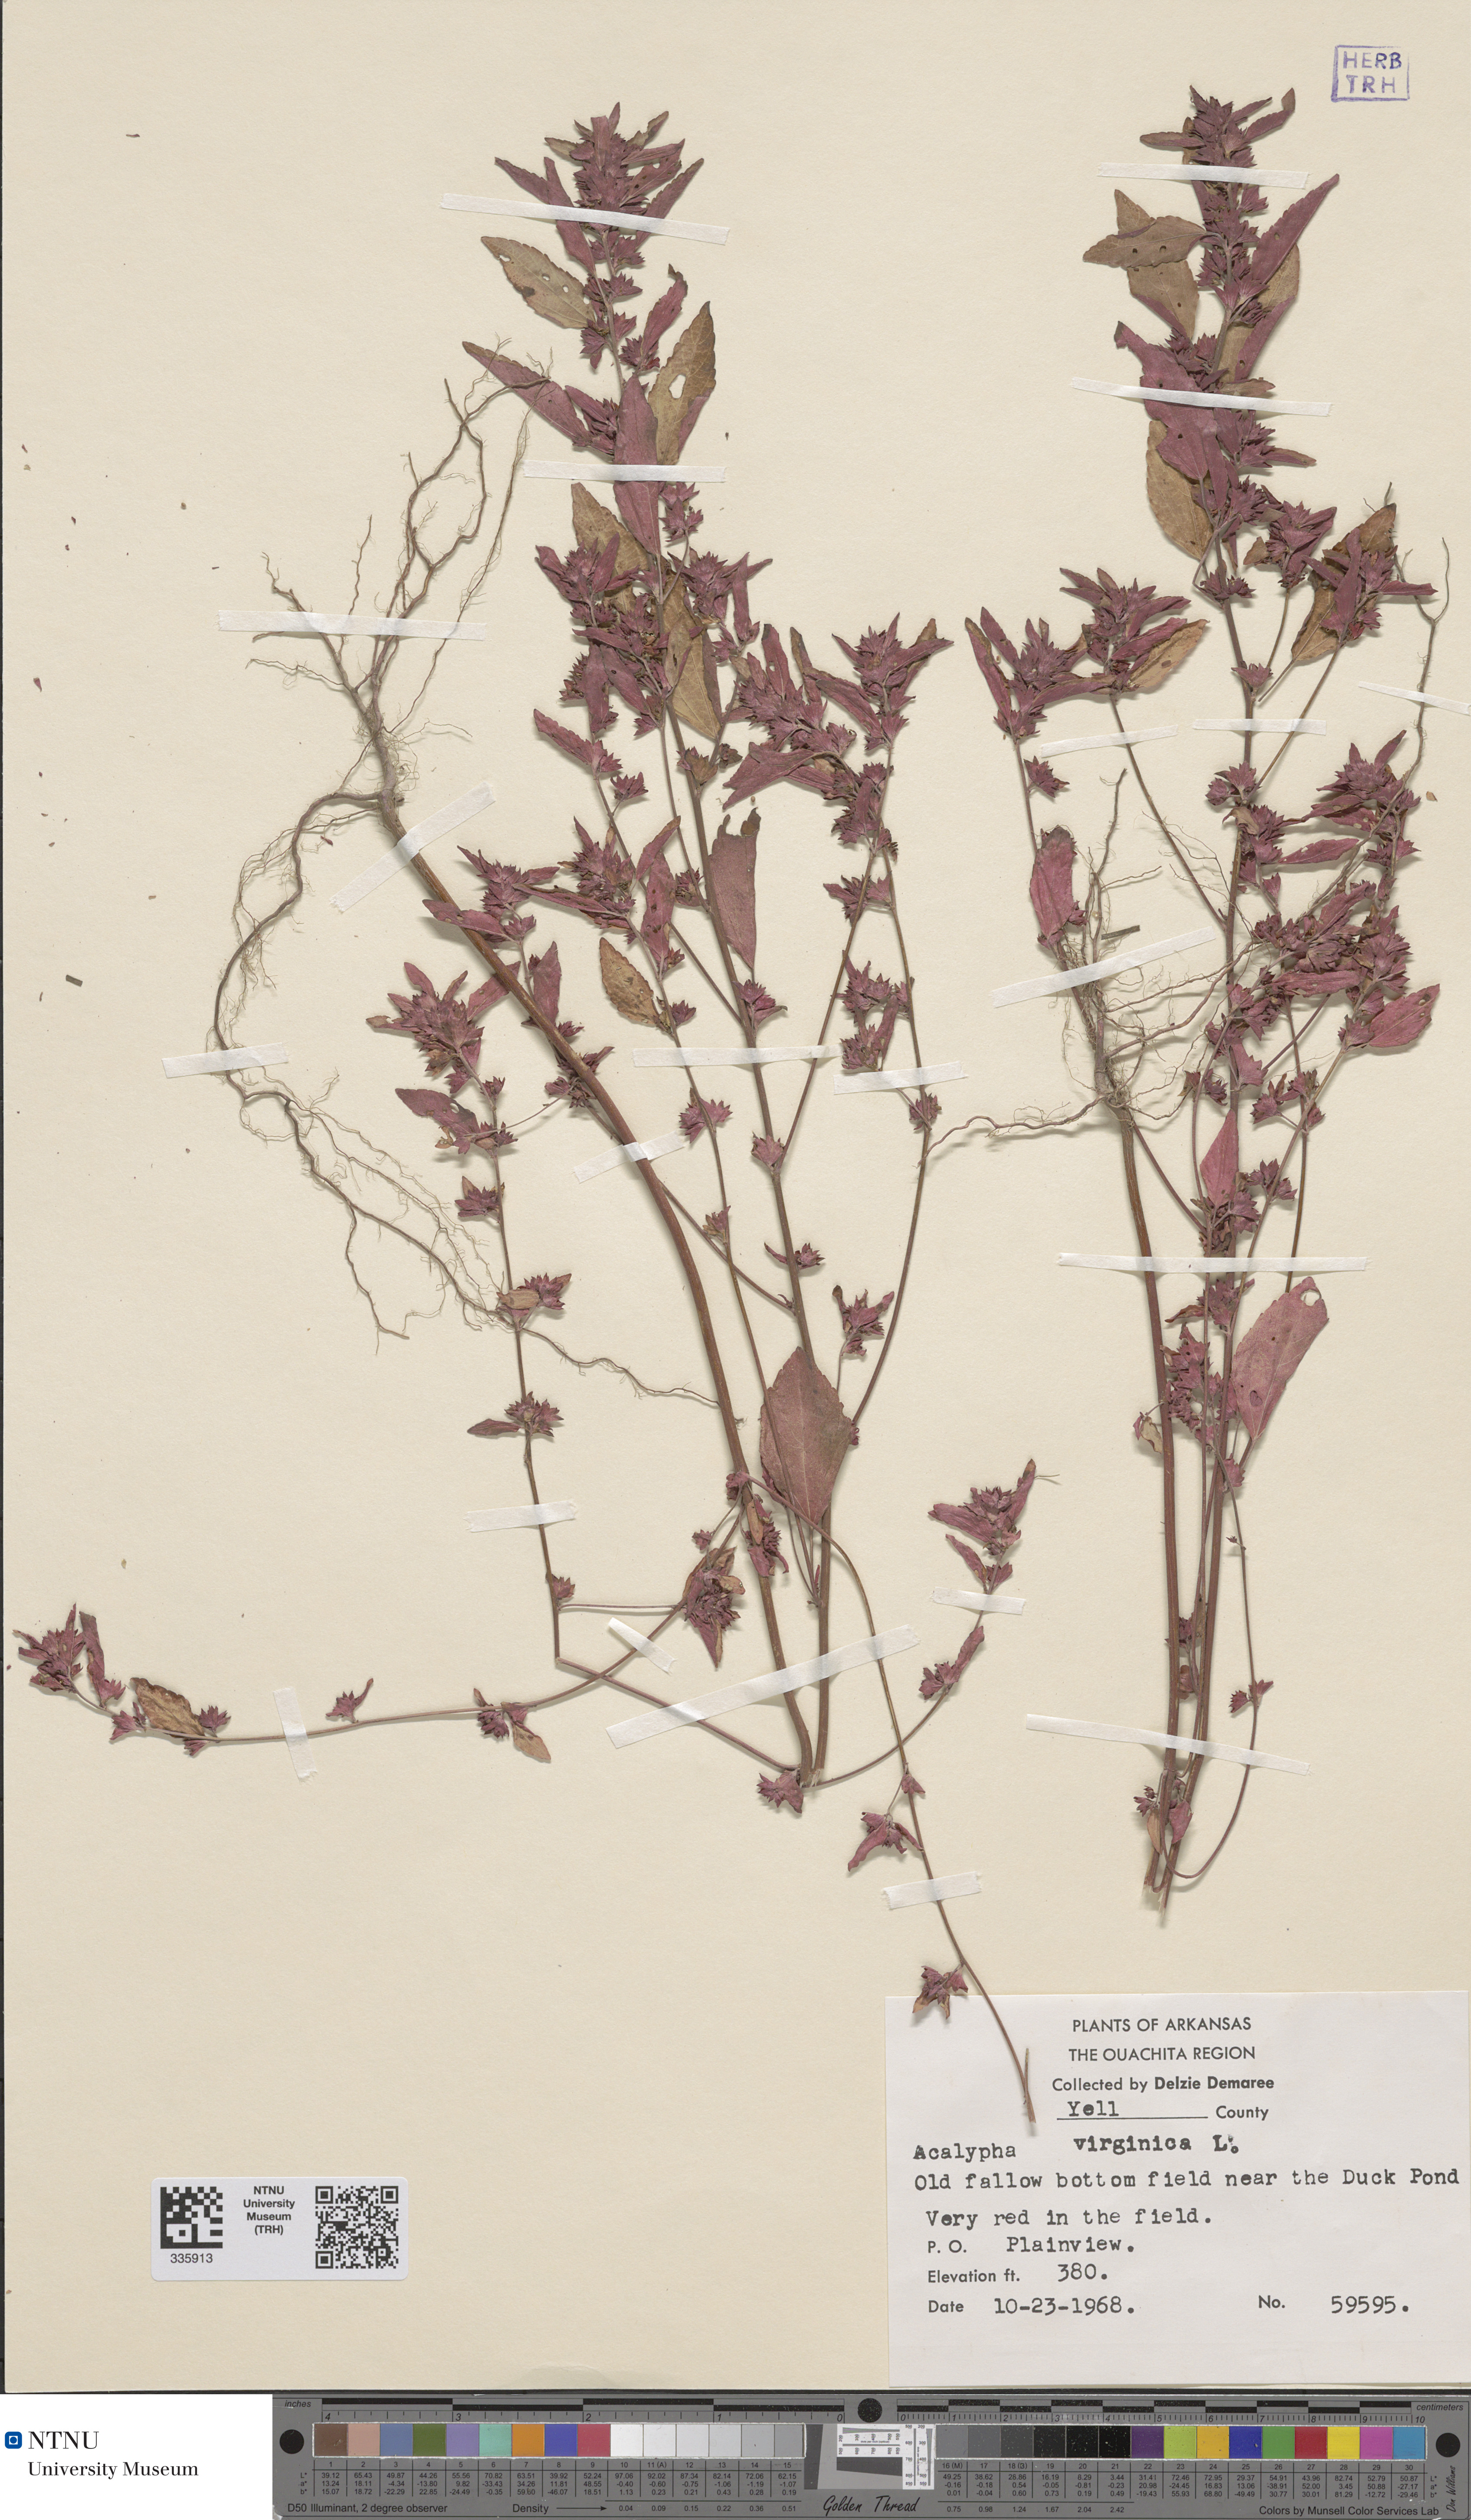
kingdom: Plantae
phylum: Tracheophyta
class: Magnoliopsida
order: Malpighiales
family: Euphorbiaceae
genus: Acalypha
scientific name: Acalypha virginica
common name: Virginia copperleaf
